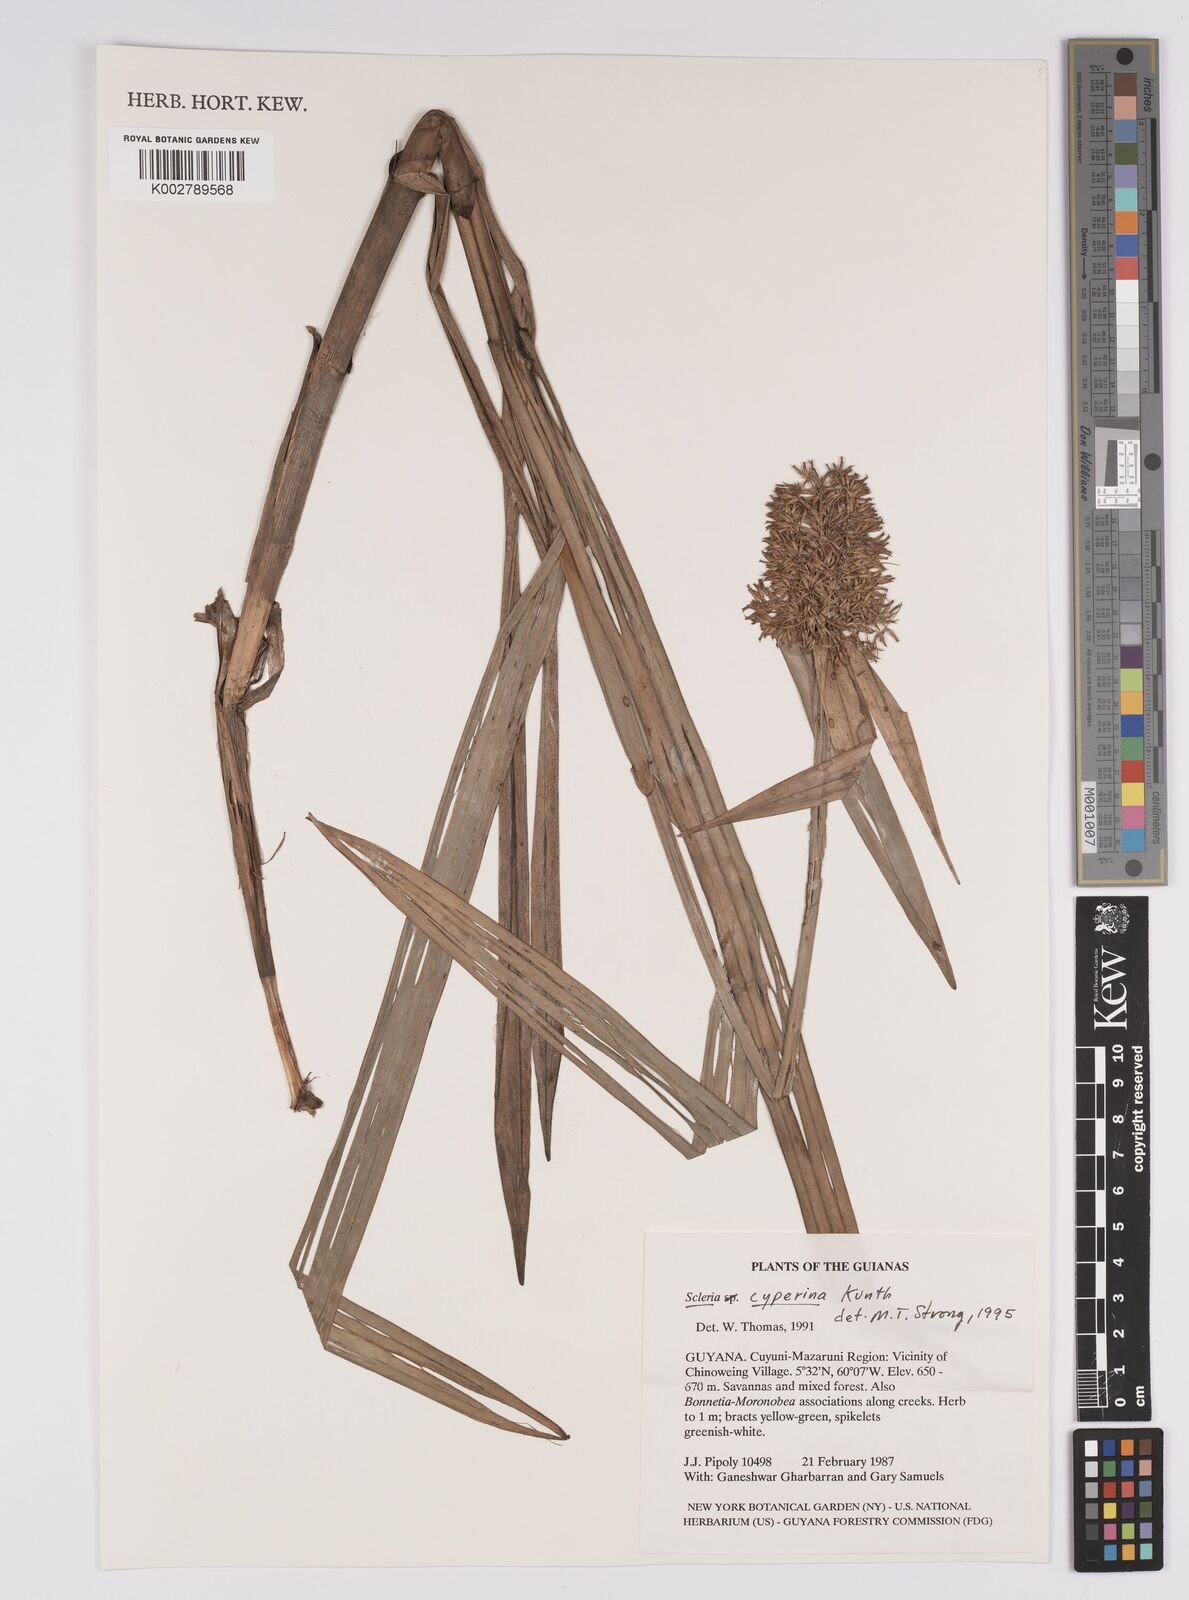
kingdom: Plantae
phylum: Tracheophyta
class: Liliopsida
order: Poales
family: Cyperaceae
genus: Scleria
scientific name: Scleria cyperina
